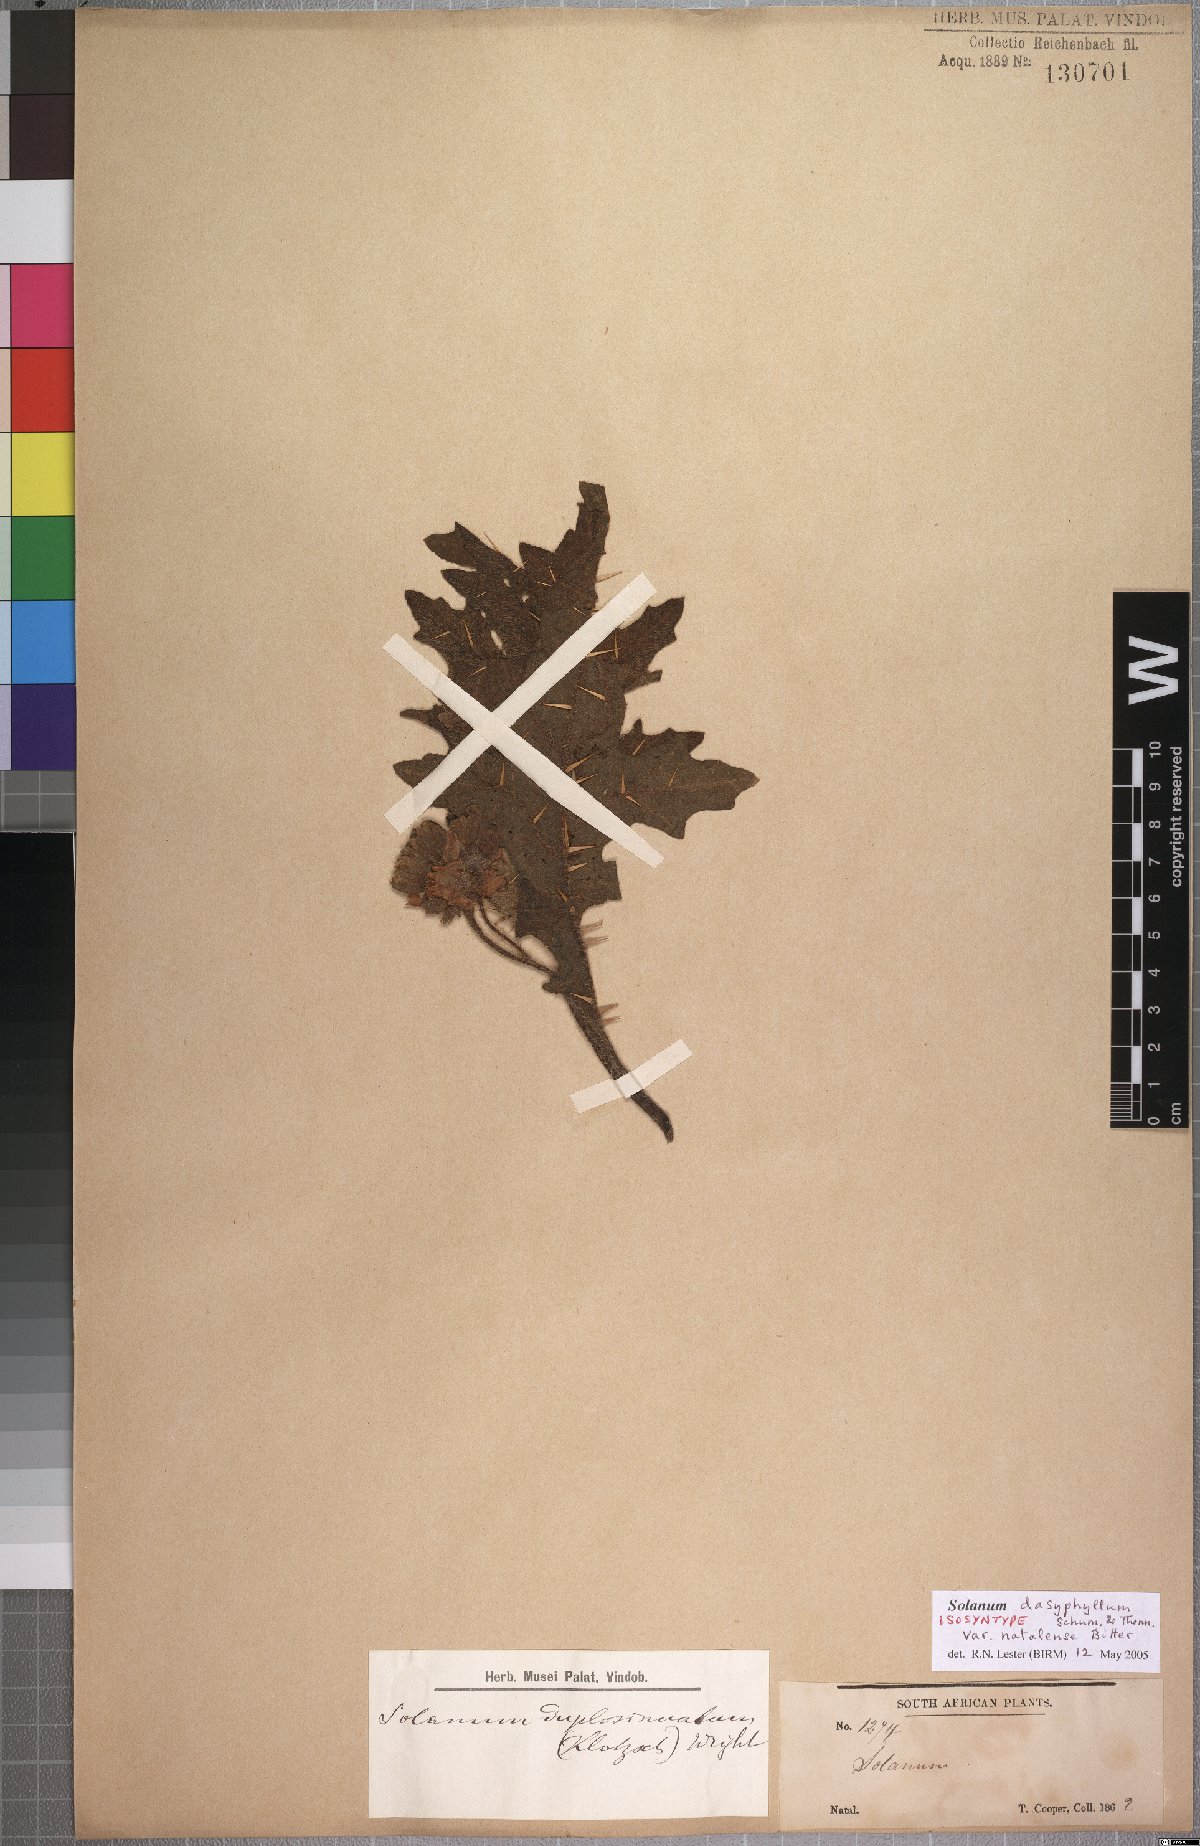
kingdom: Plantae
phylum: Tracheophyta
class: Magnoliopsida
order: Solanales
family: Solanaceae
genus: Solanum
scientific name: Solanum dasyphyllum
